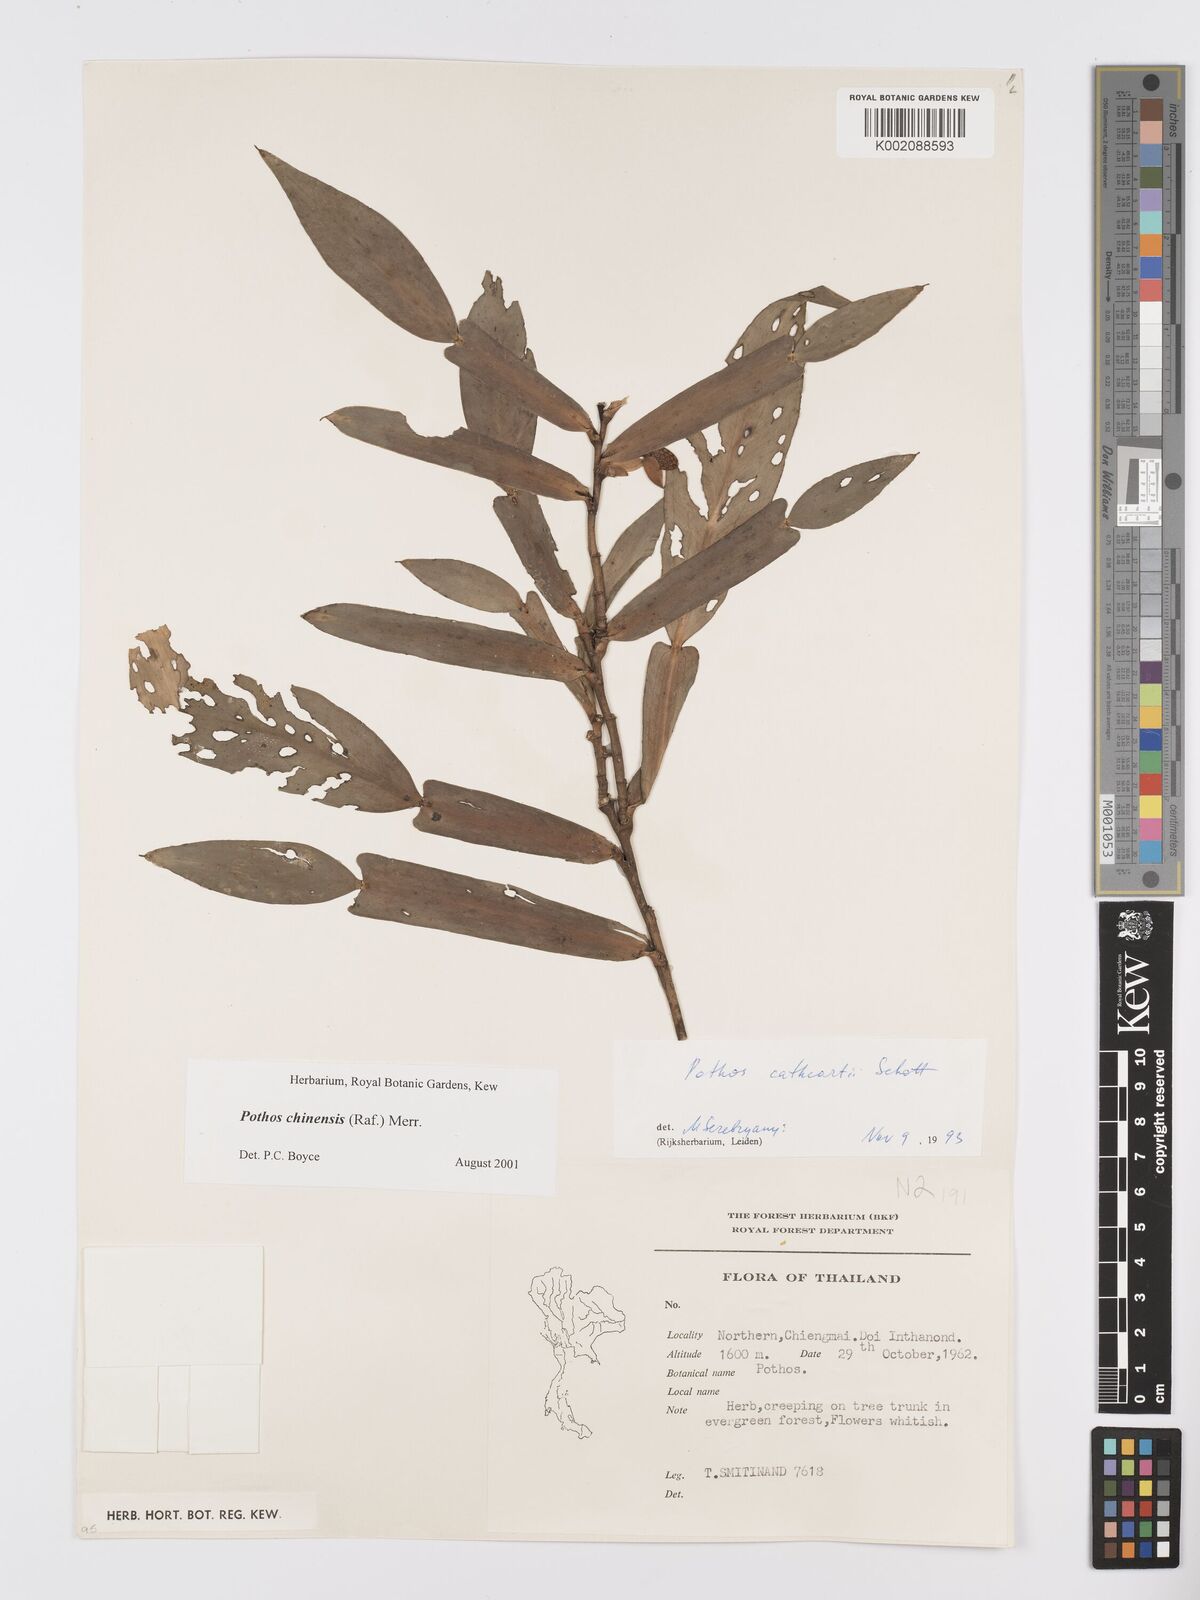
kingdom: Plantae
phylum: Tracheophyta
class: Liliopsida
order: Alismatales
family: Araceae
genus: Pothos
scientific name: Pothos chinensis
